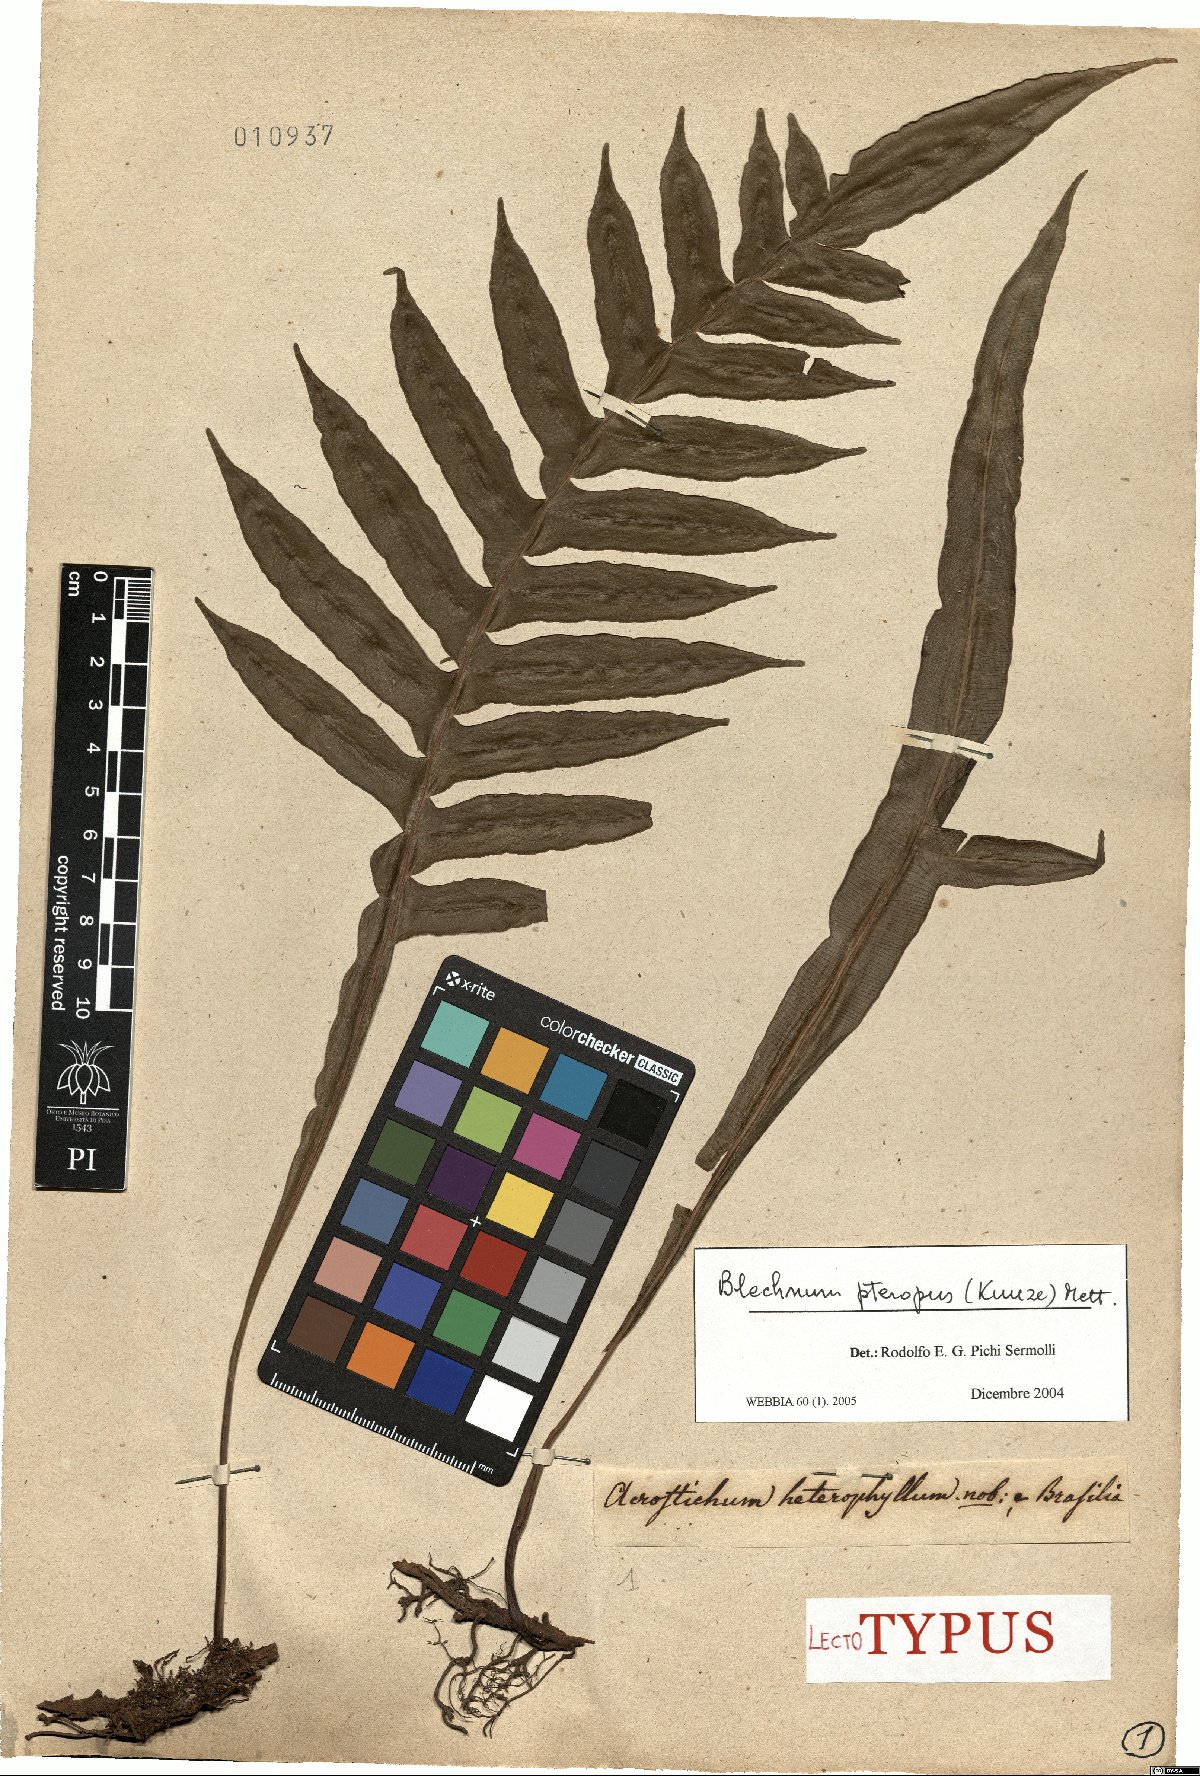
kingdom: Plantae
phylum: Tracheophyta
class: Polypodiopsida
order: Polypodiales
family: Blechnaceae
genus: Lomaridium
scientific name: Lomaridium pteropus
